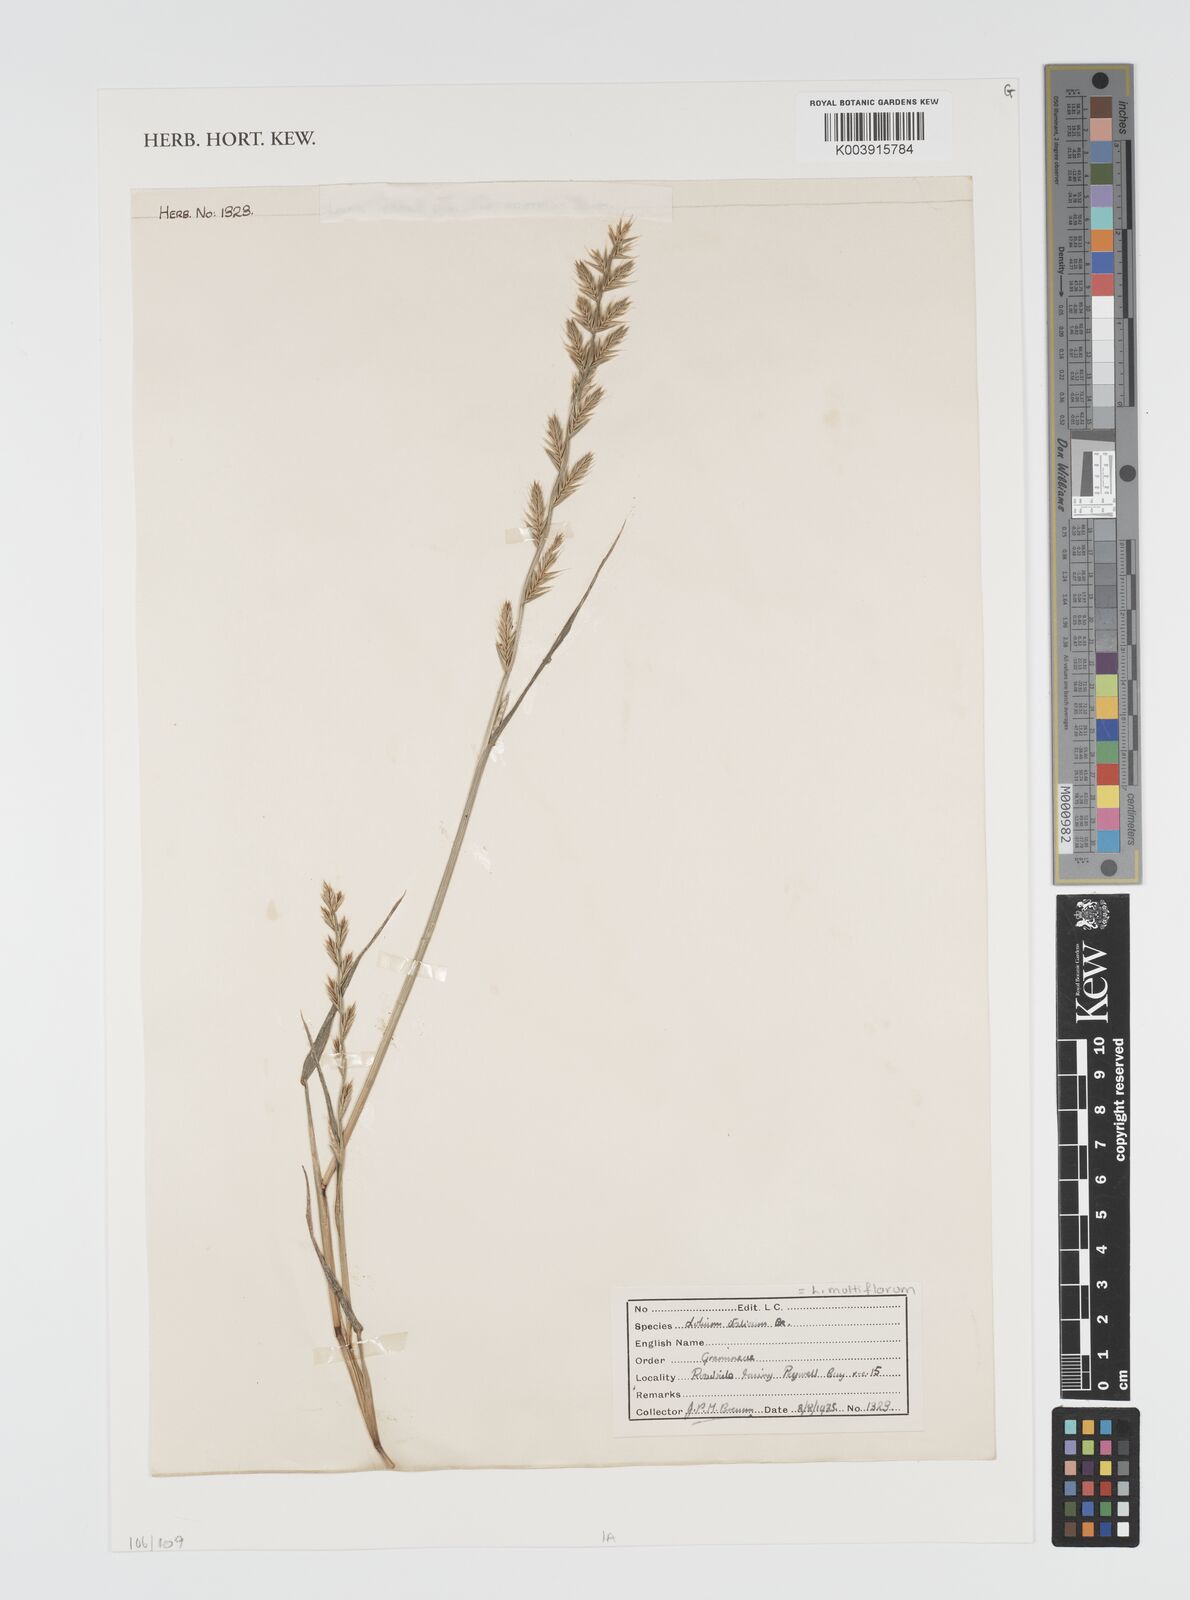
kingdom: Plantae
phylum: Tracheophyta
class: Liliopsida
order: Poales
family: Poaceae
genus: Lolium
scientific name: Lolium multiflorum
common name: Annual ryegrass
